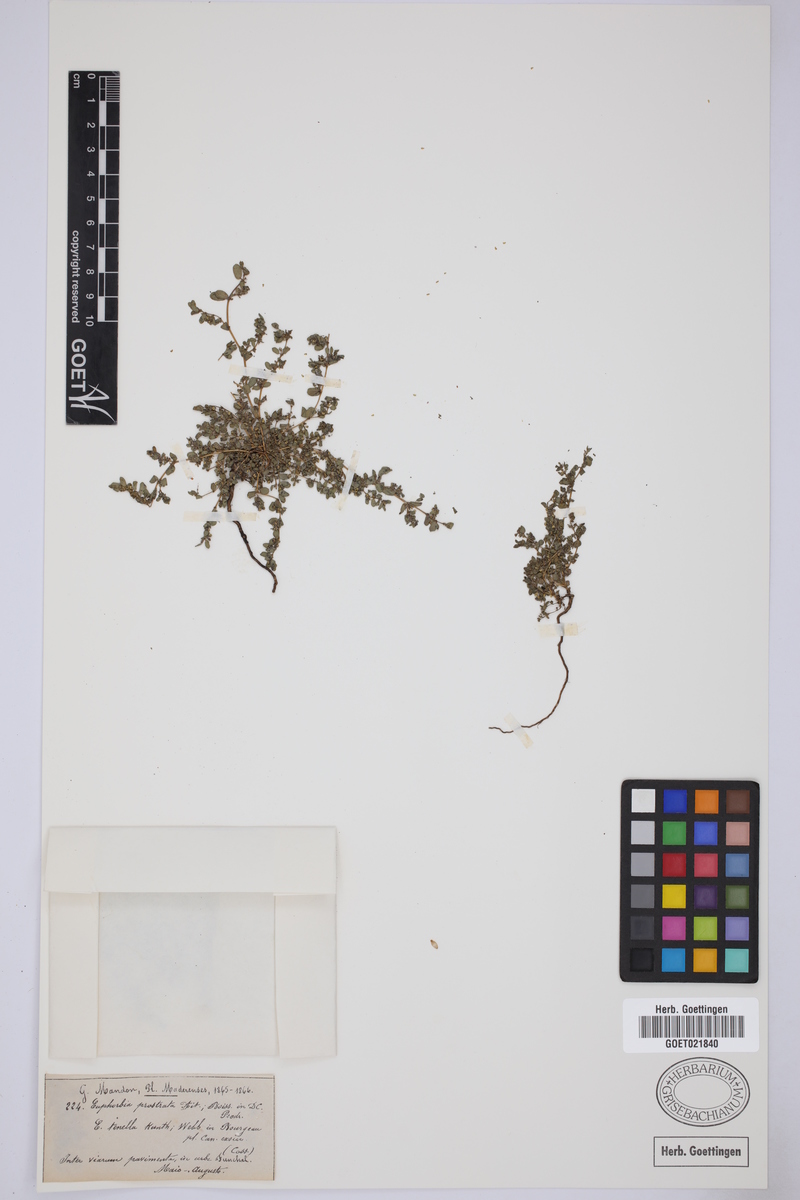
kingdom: Plantae
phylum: Tracheophyta
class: Magnoliopsida
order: Malpighiales
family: Euphorbiaceae
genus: Euphorbia
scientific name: Euphorbia prostrata
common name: Prostrate sandmat
